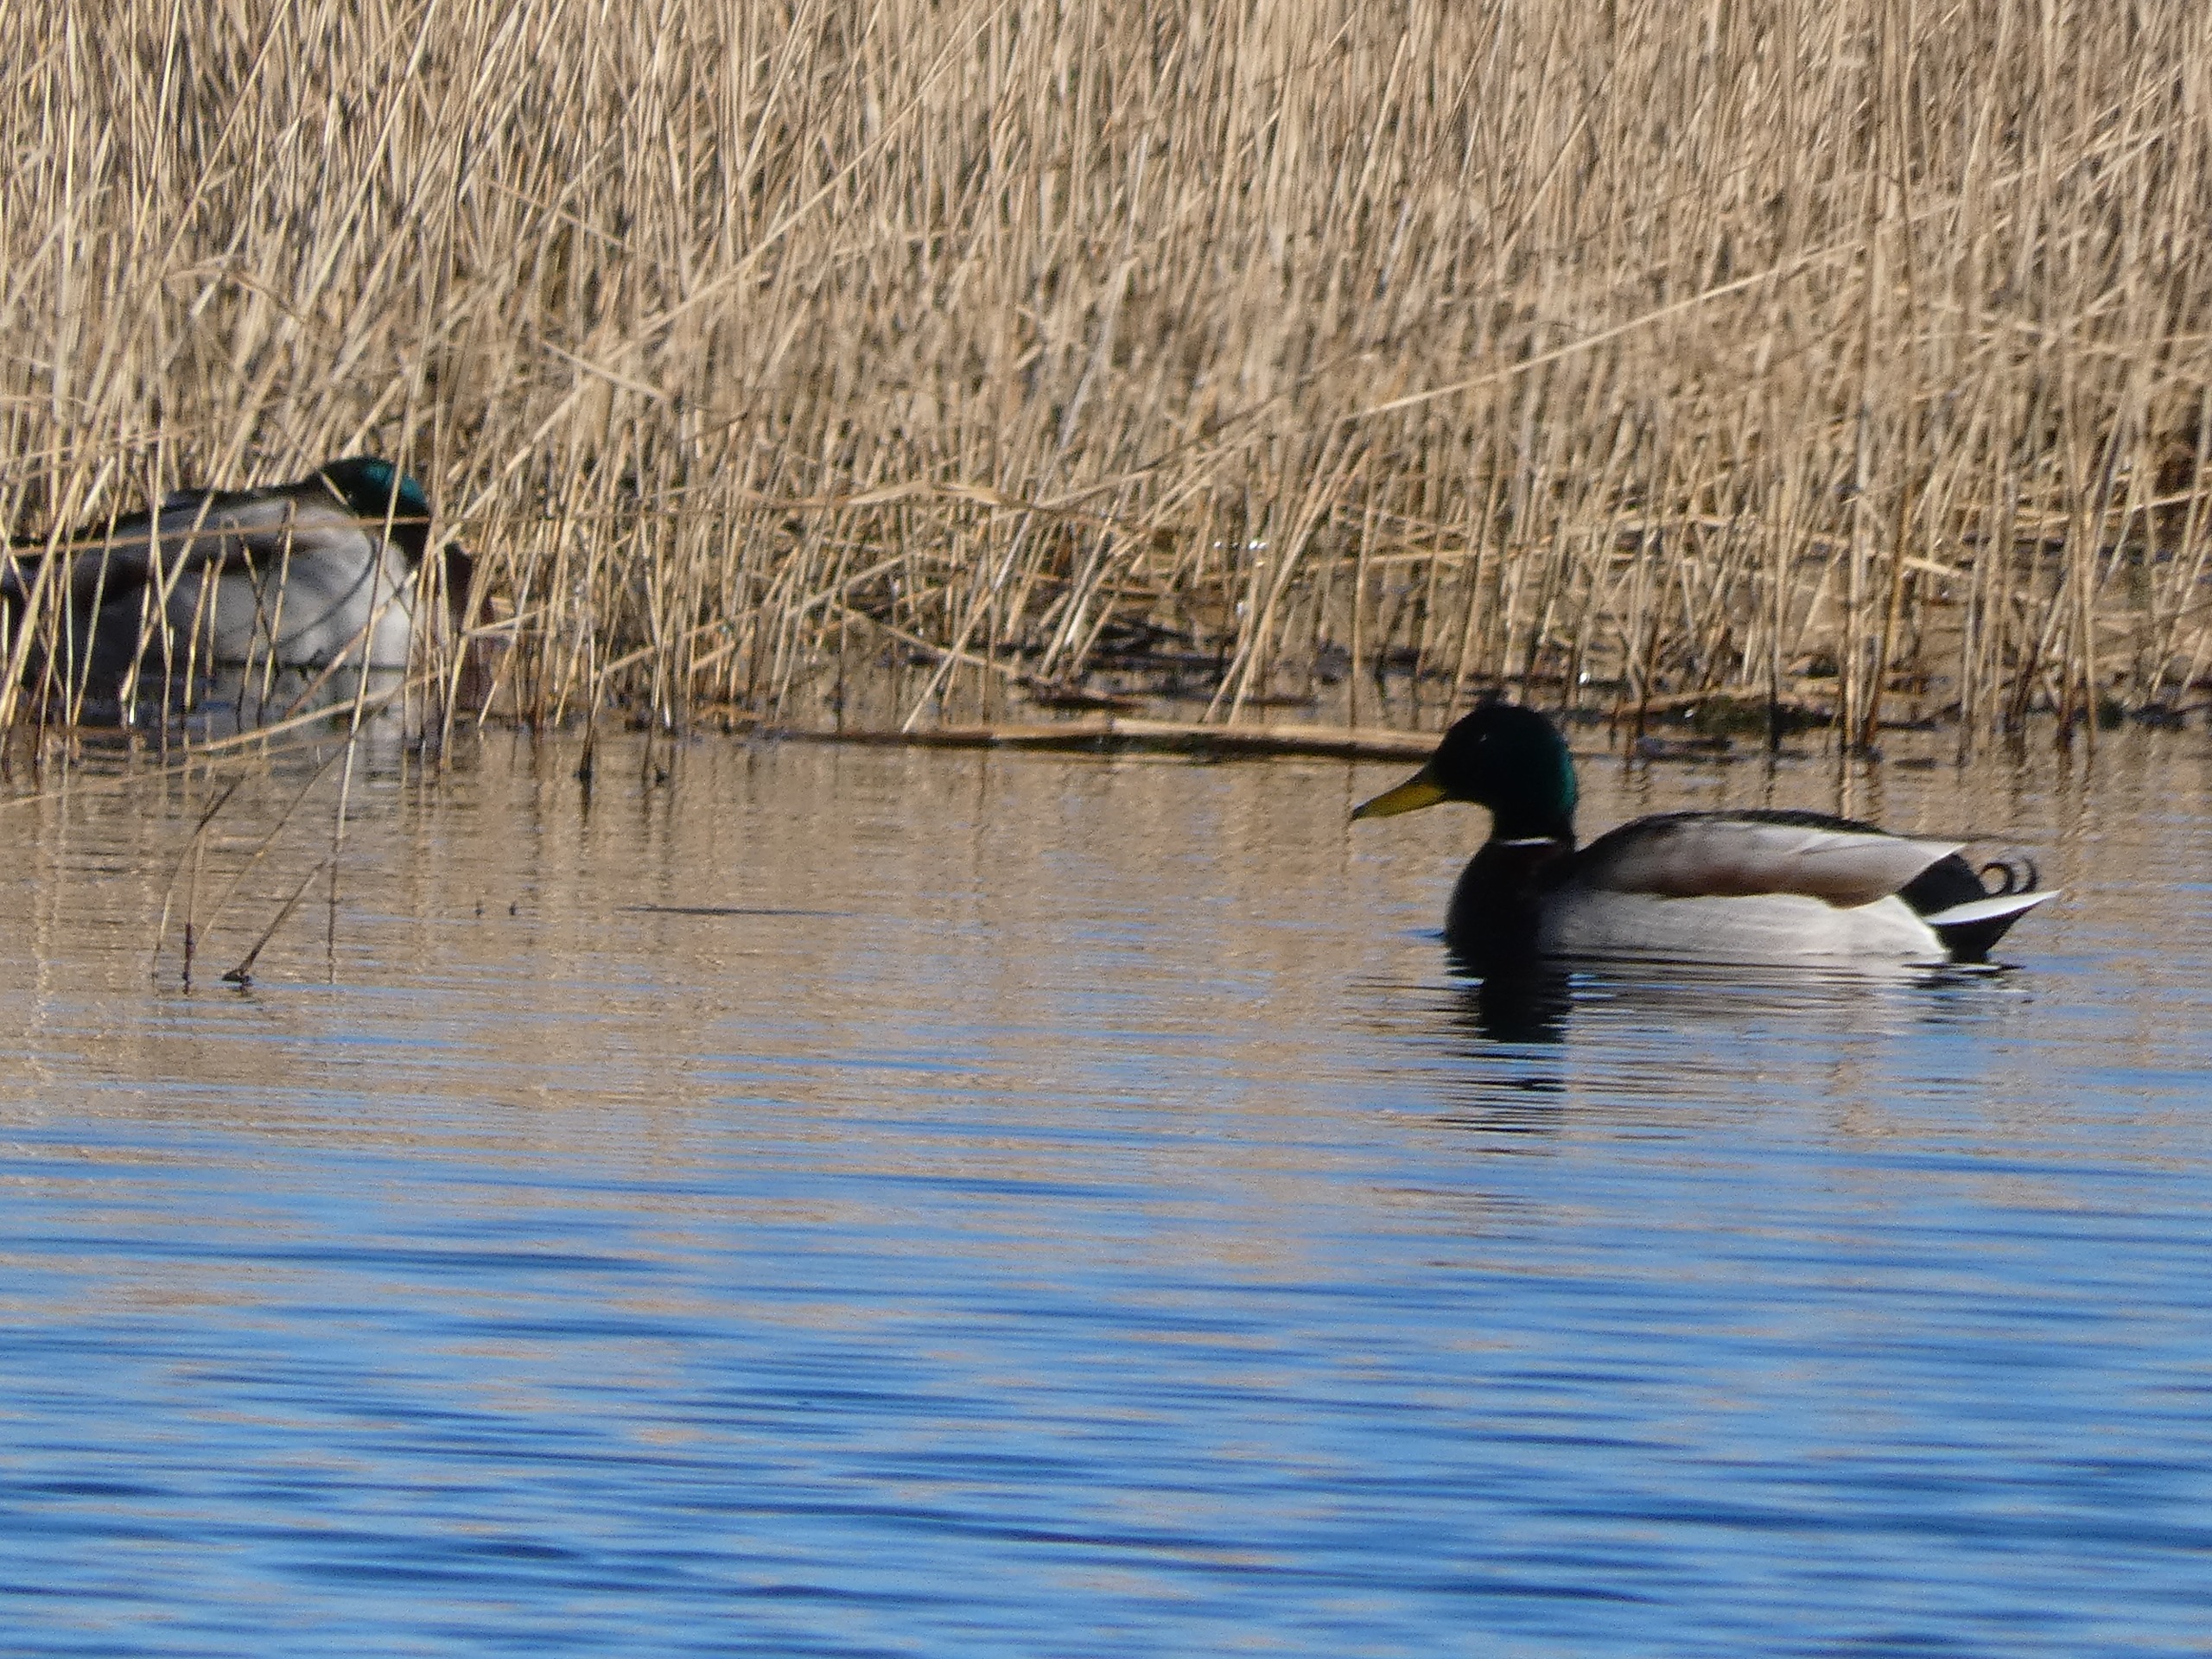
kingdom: Animalia
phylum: Chordata
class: Aves
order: Anseriformes
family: Anatidae
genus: Anas
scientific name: Anas platyrhynchos
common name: Gråand
